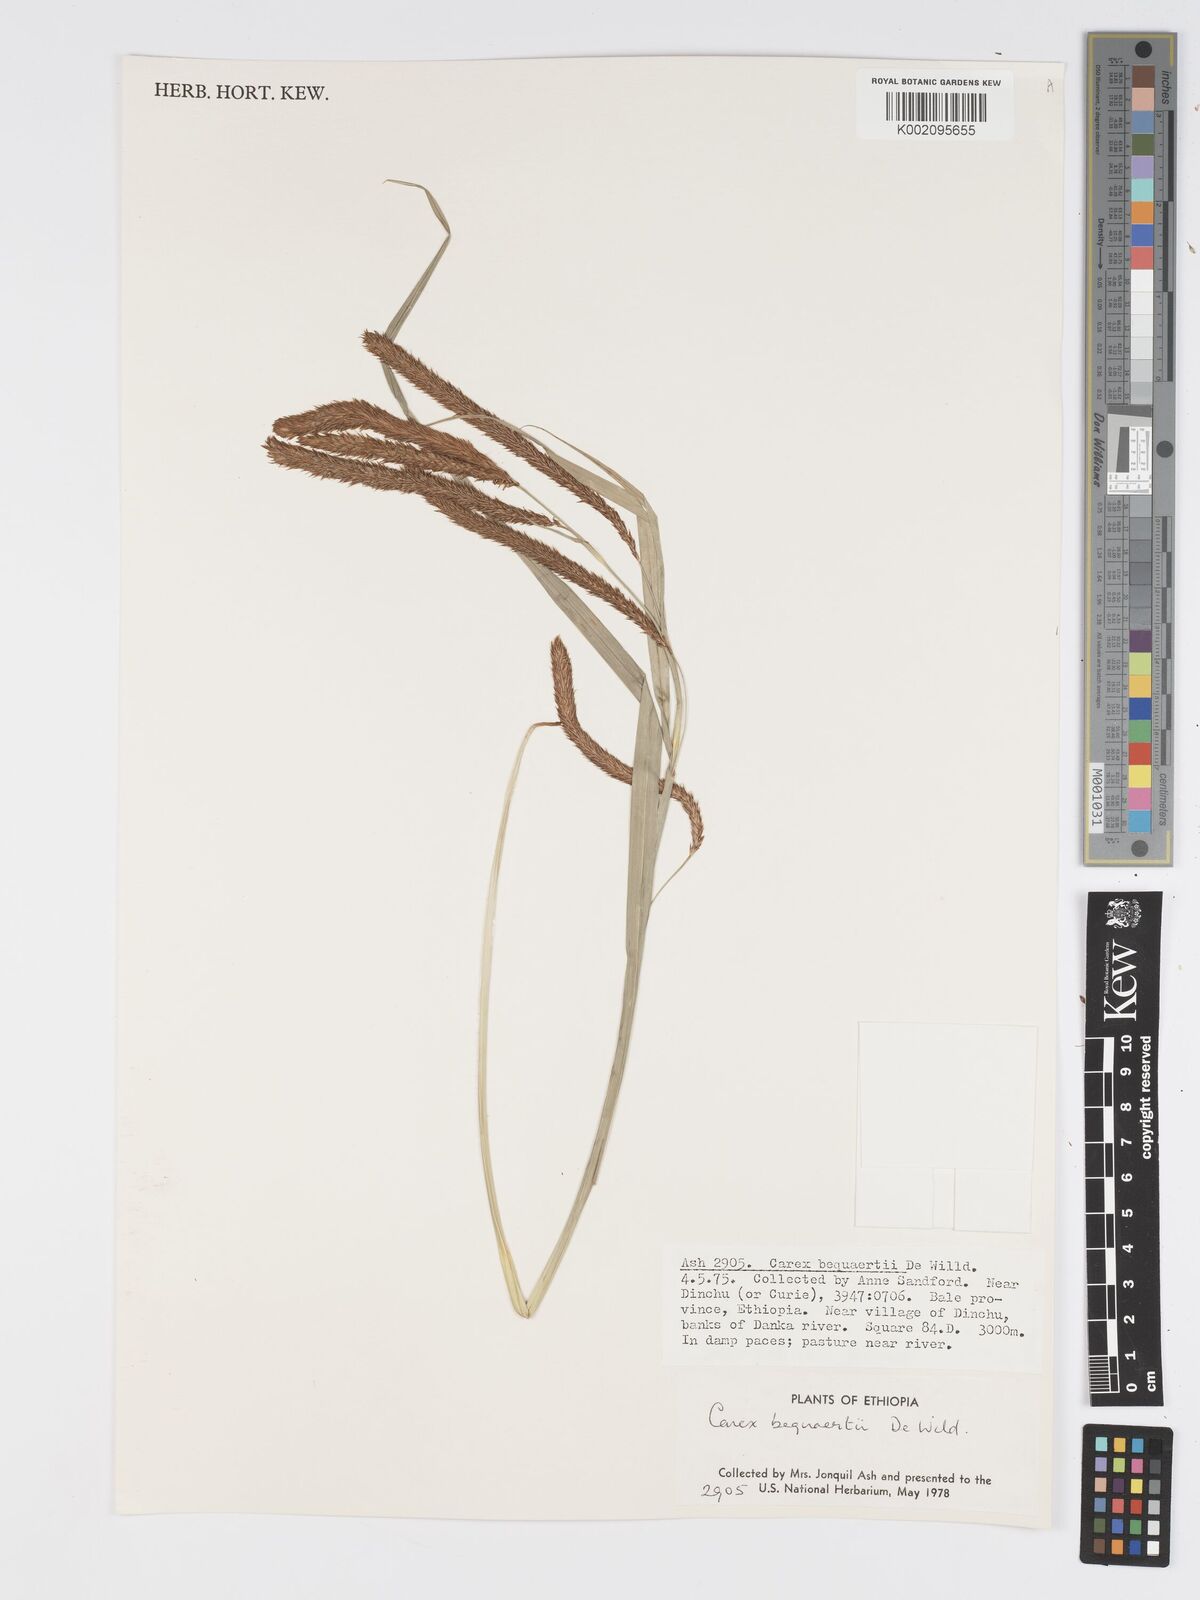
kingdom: Plantae
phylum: Tracheophyta
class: Liliopsida
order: Poales
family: Cyperaceae
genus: Carex
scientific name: Carex bequaertii
